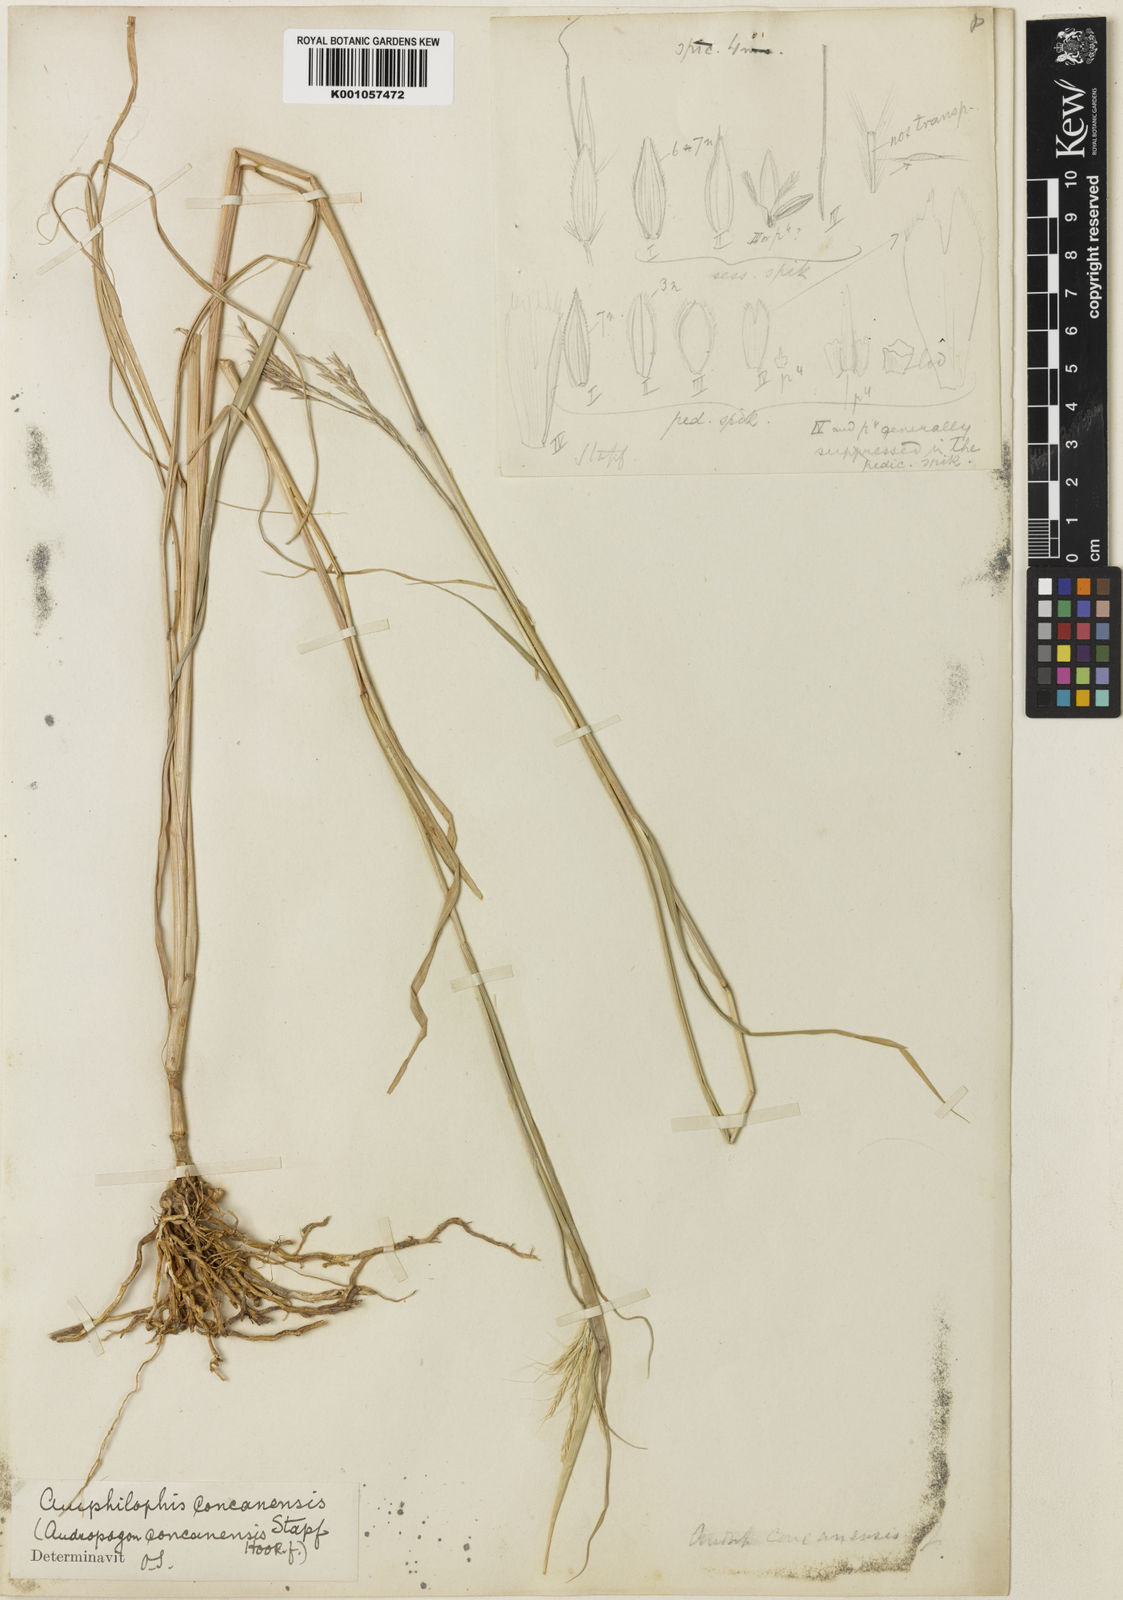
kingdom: Plantae
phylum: Tracheophyta
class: Liliopsida
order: Poales
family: Poaceae
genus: Dichanthium
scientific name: Dichanthium concanense
